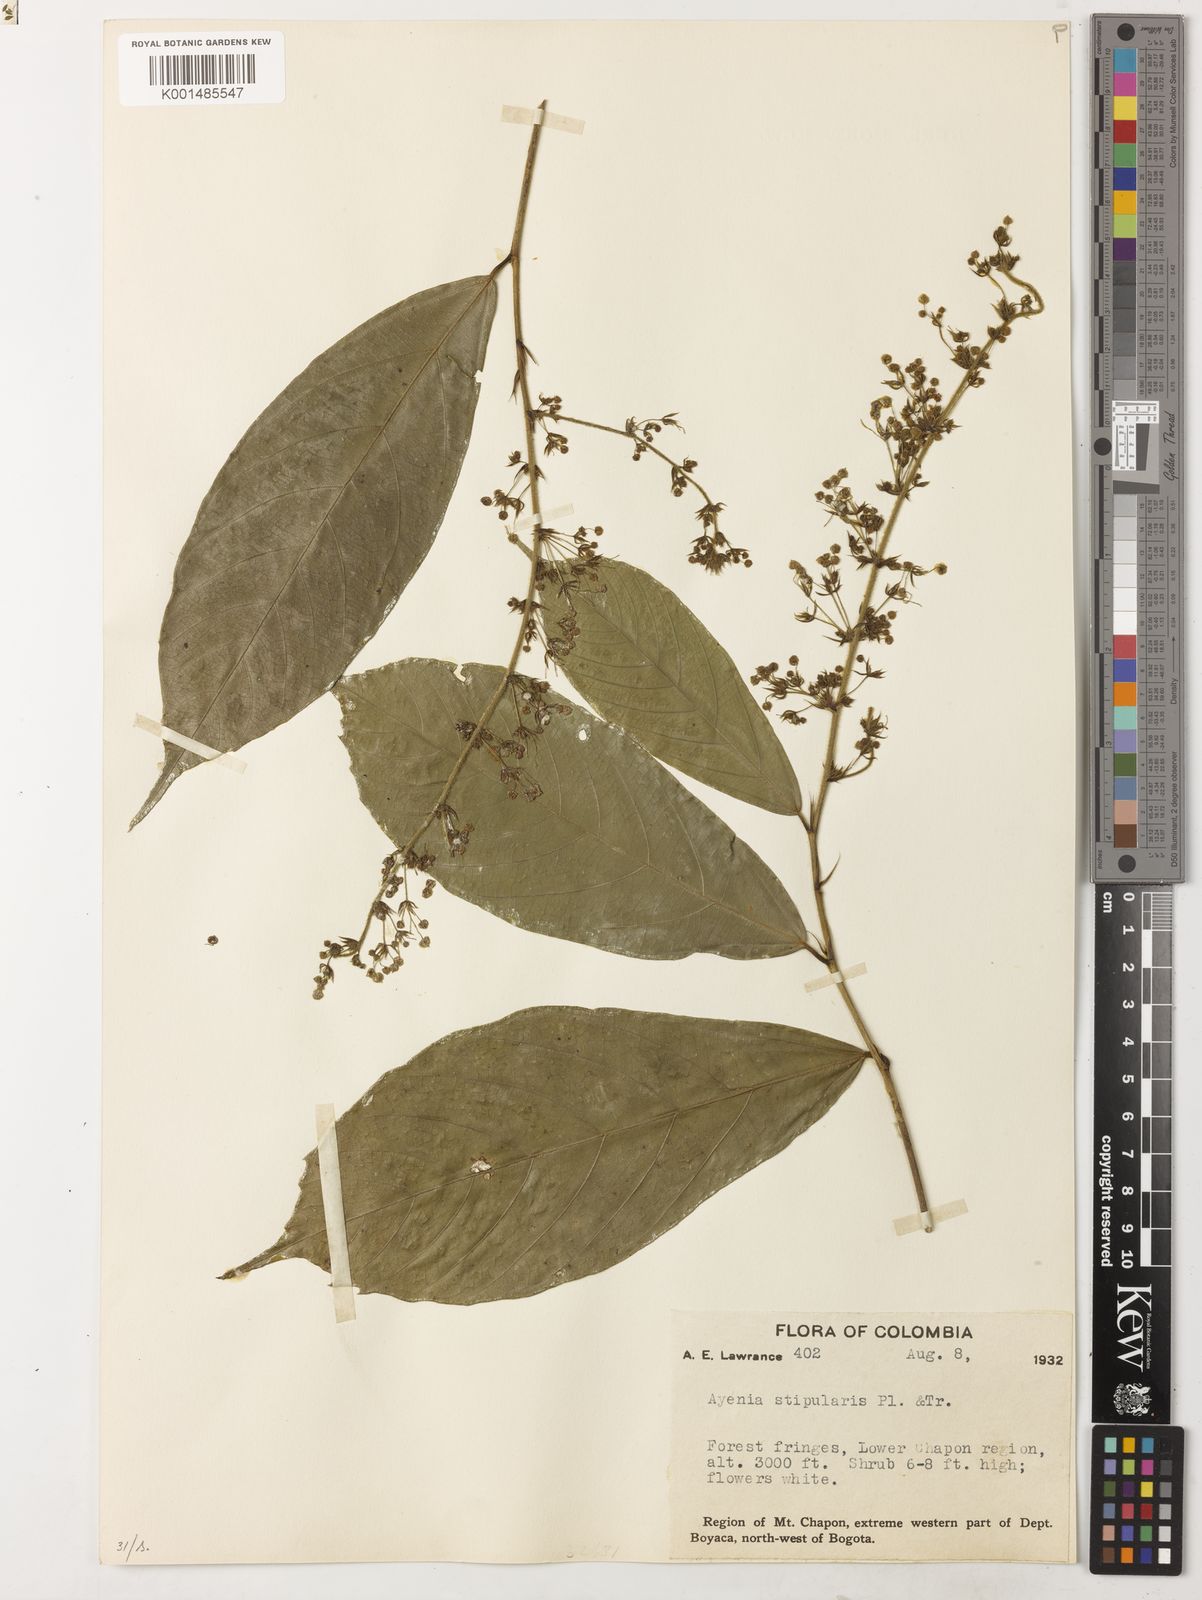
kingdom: Plantae
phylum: Tracheophyta
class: Magnoliopsida
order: Malvales
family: Malvaceae
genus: Ayenia
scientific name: Ayenia stipularis
